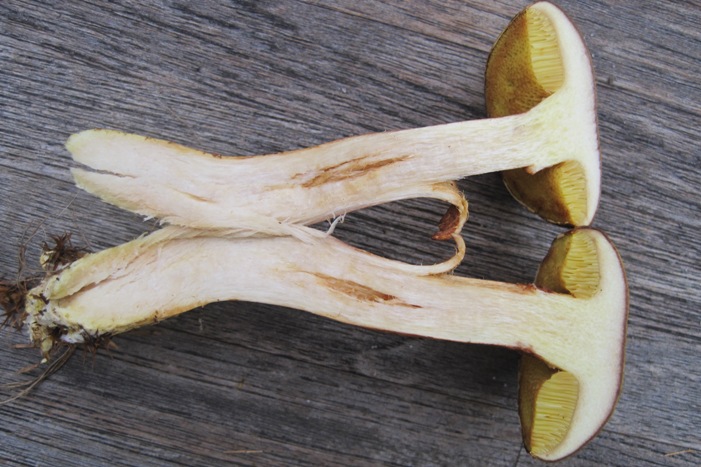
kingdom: Fungi
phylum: Basidiomycota
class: Agaricomycetes
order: Boletales
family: Boletaceae
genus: Xerocomus
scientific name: Xerocomus ferrugineus
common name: vaskeskinds-rørhat
